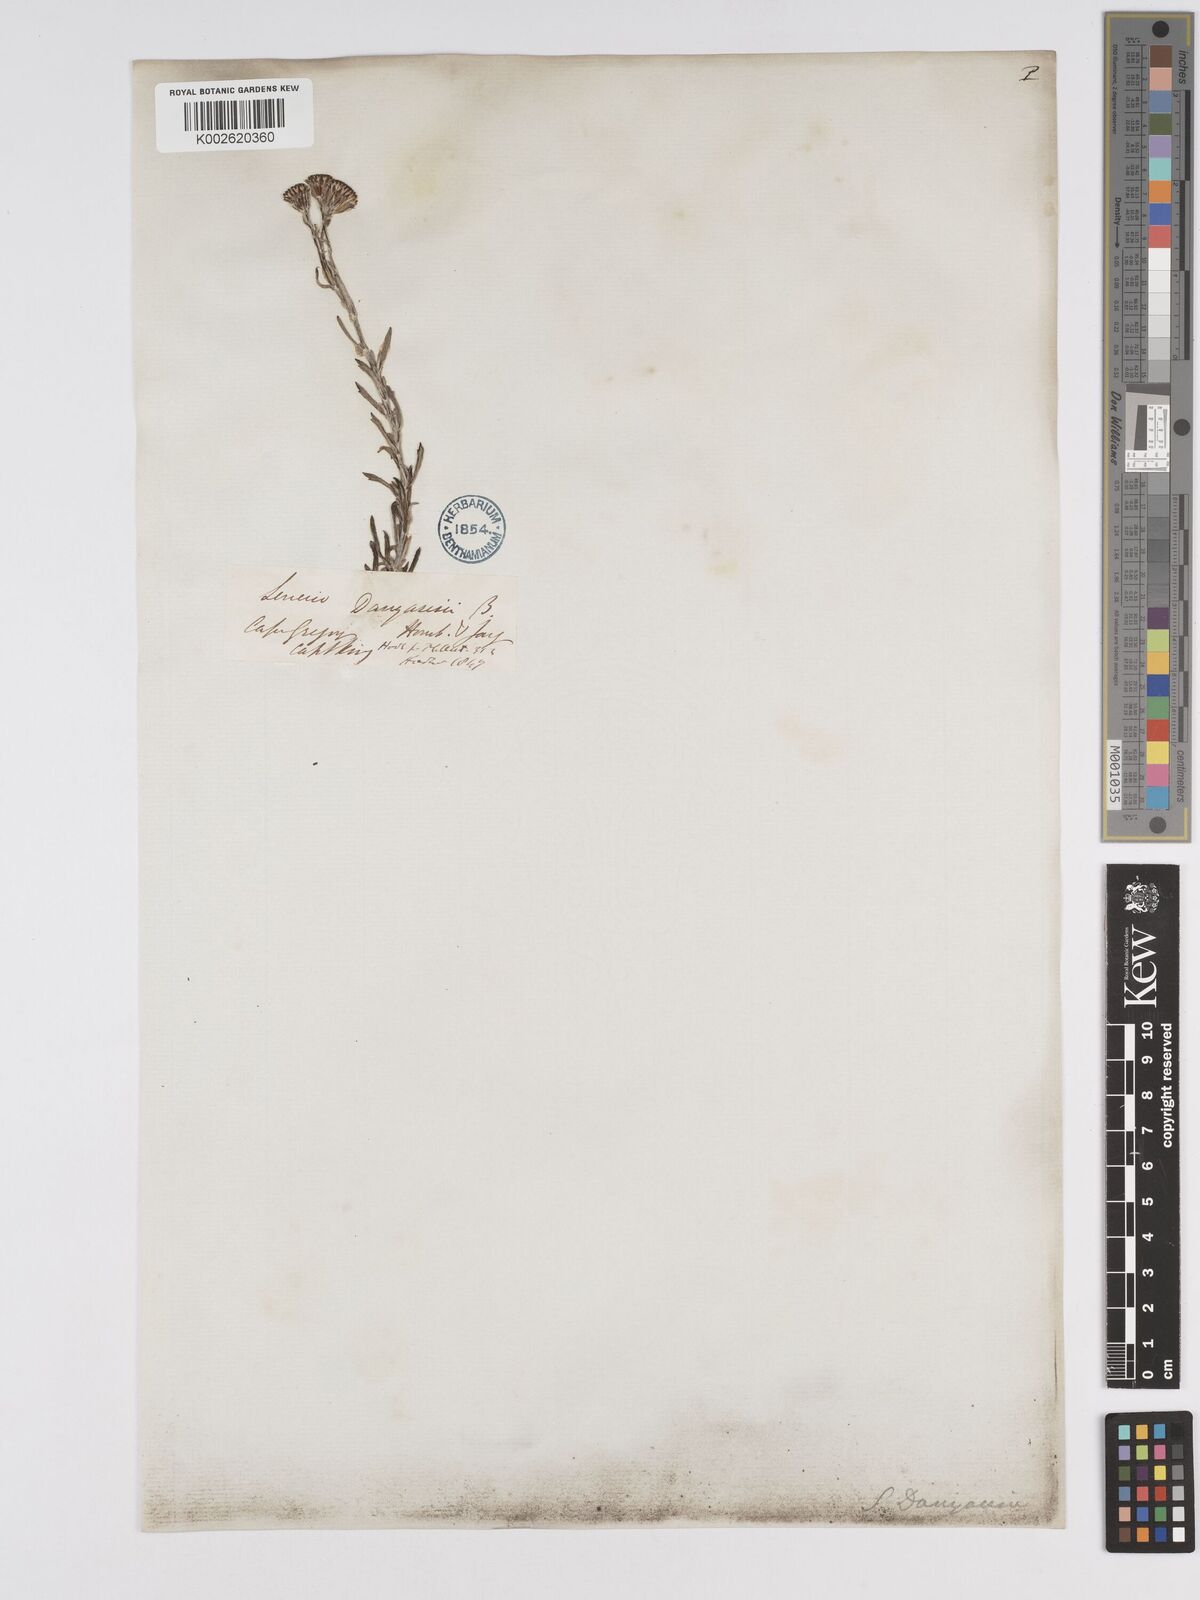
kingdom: Plantae
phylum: Tracheophyta
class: Magnoliopsida
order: Asterales
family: Asteraceae
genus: Senecio
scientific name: Senecio patagonicus
